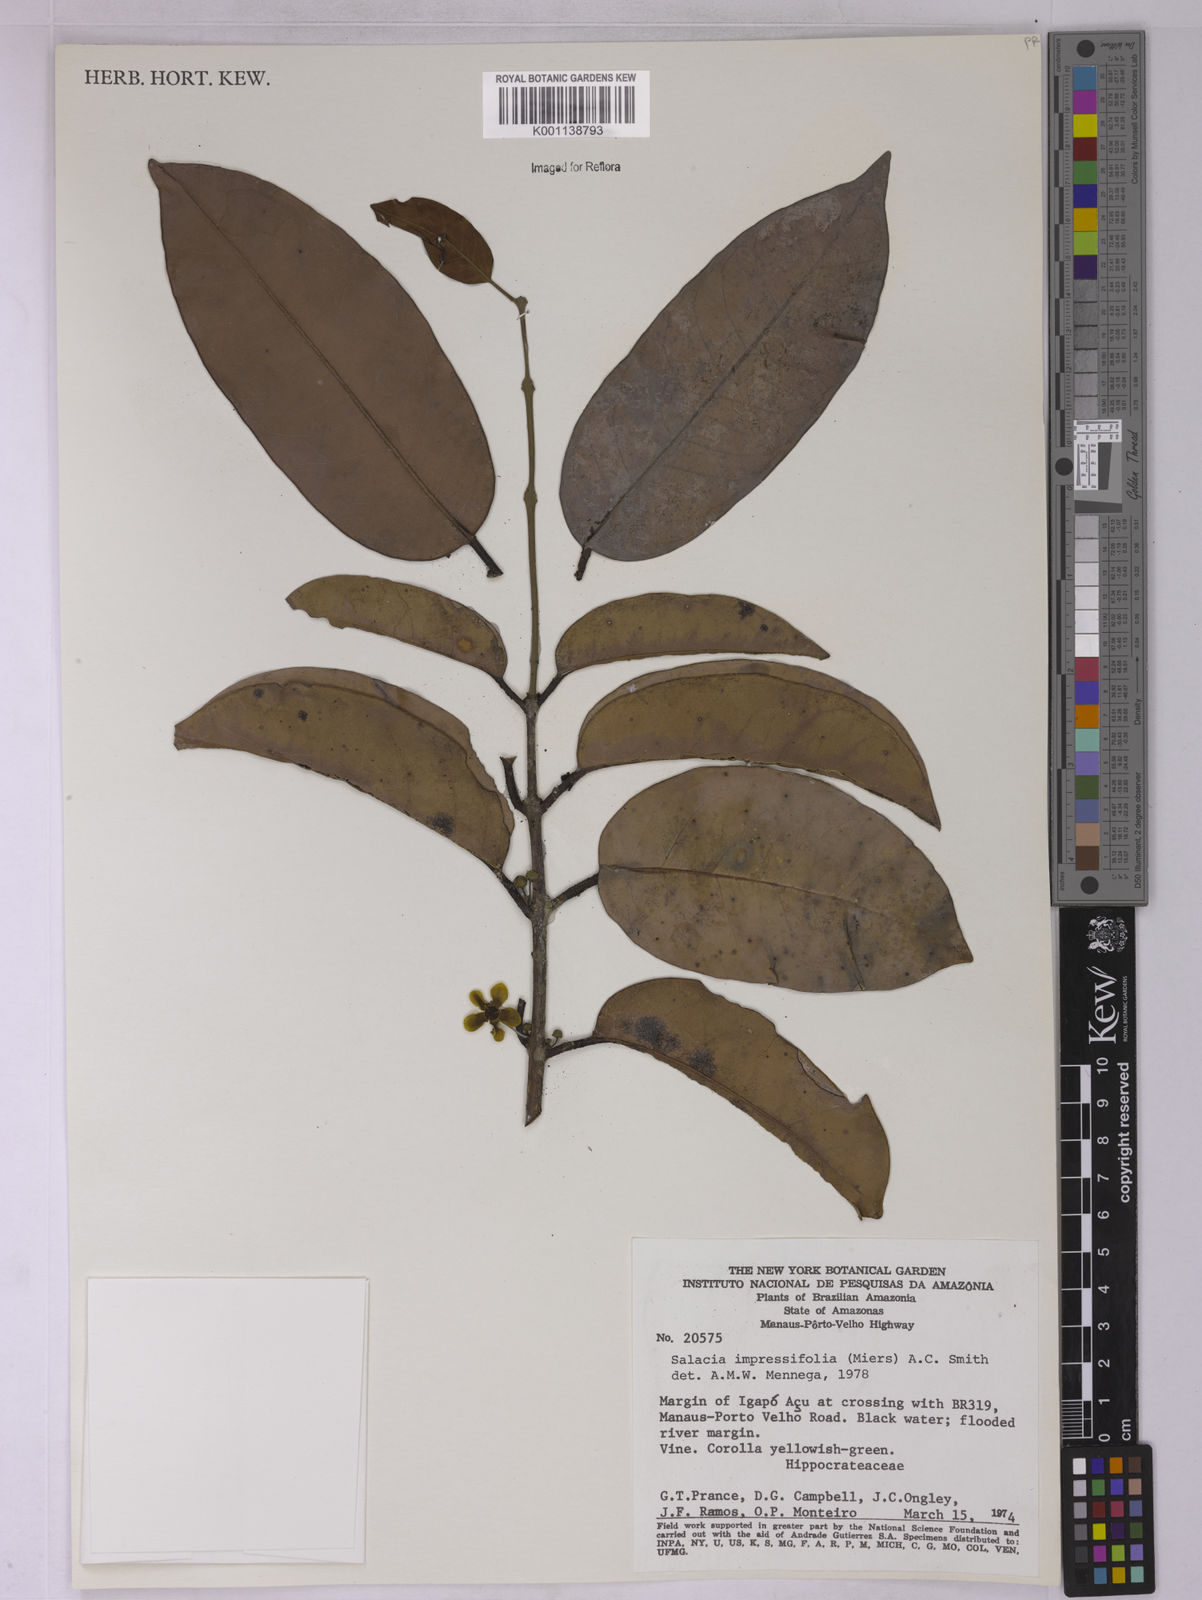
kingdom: Plantae
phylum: Tracheophyta
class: Magnoliopsida
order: Celastrales
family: Celastraceae
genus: Salacia
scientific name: Salacia impressifolia
